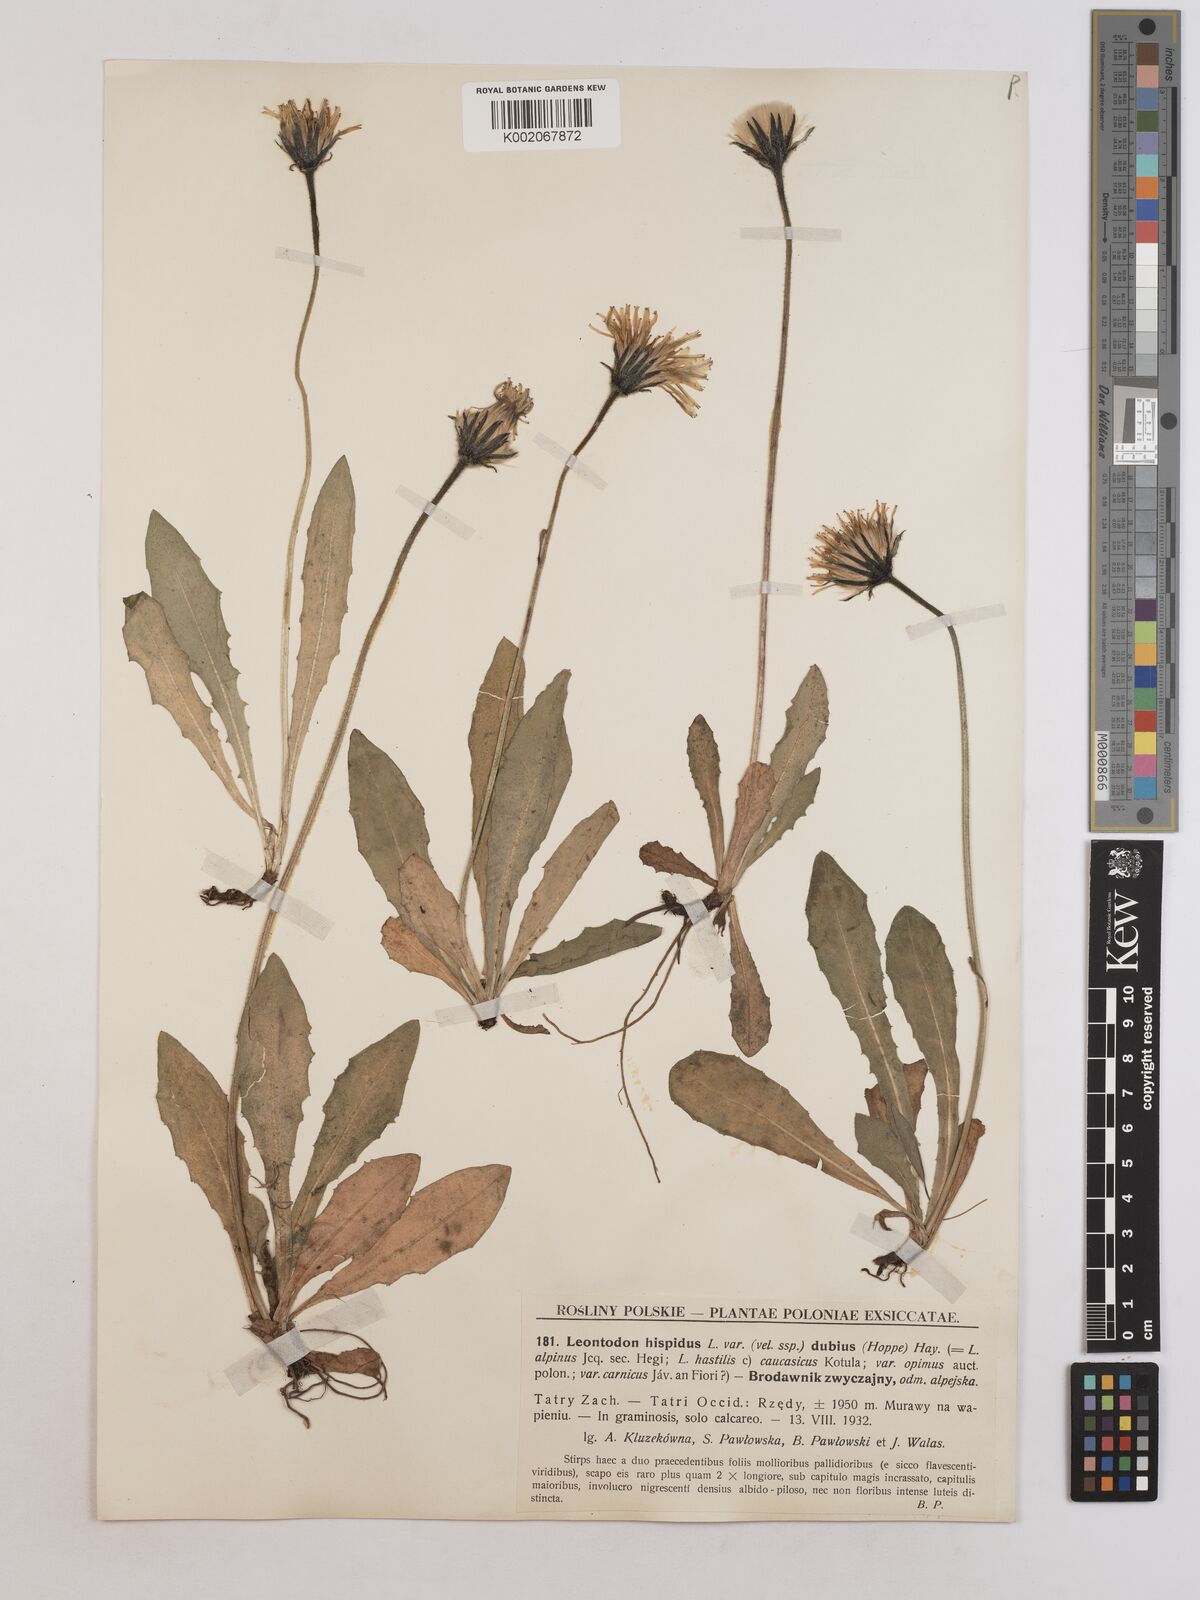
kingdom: Plantae
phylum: Tracheophyta
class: Magnoliopsida
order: Asterales
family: Asteraceae
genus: Leontodon
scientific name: Leontodon hispidus
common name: Rough hawkbit
